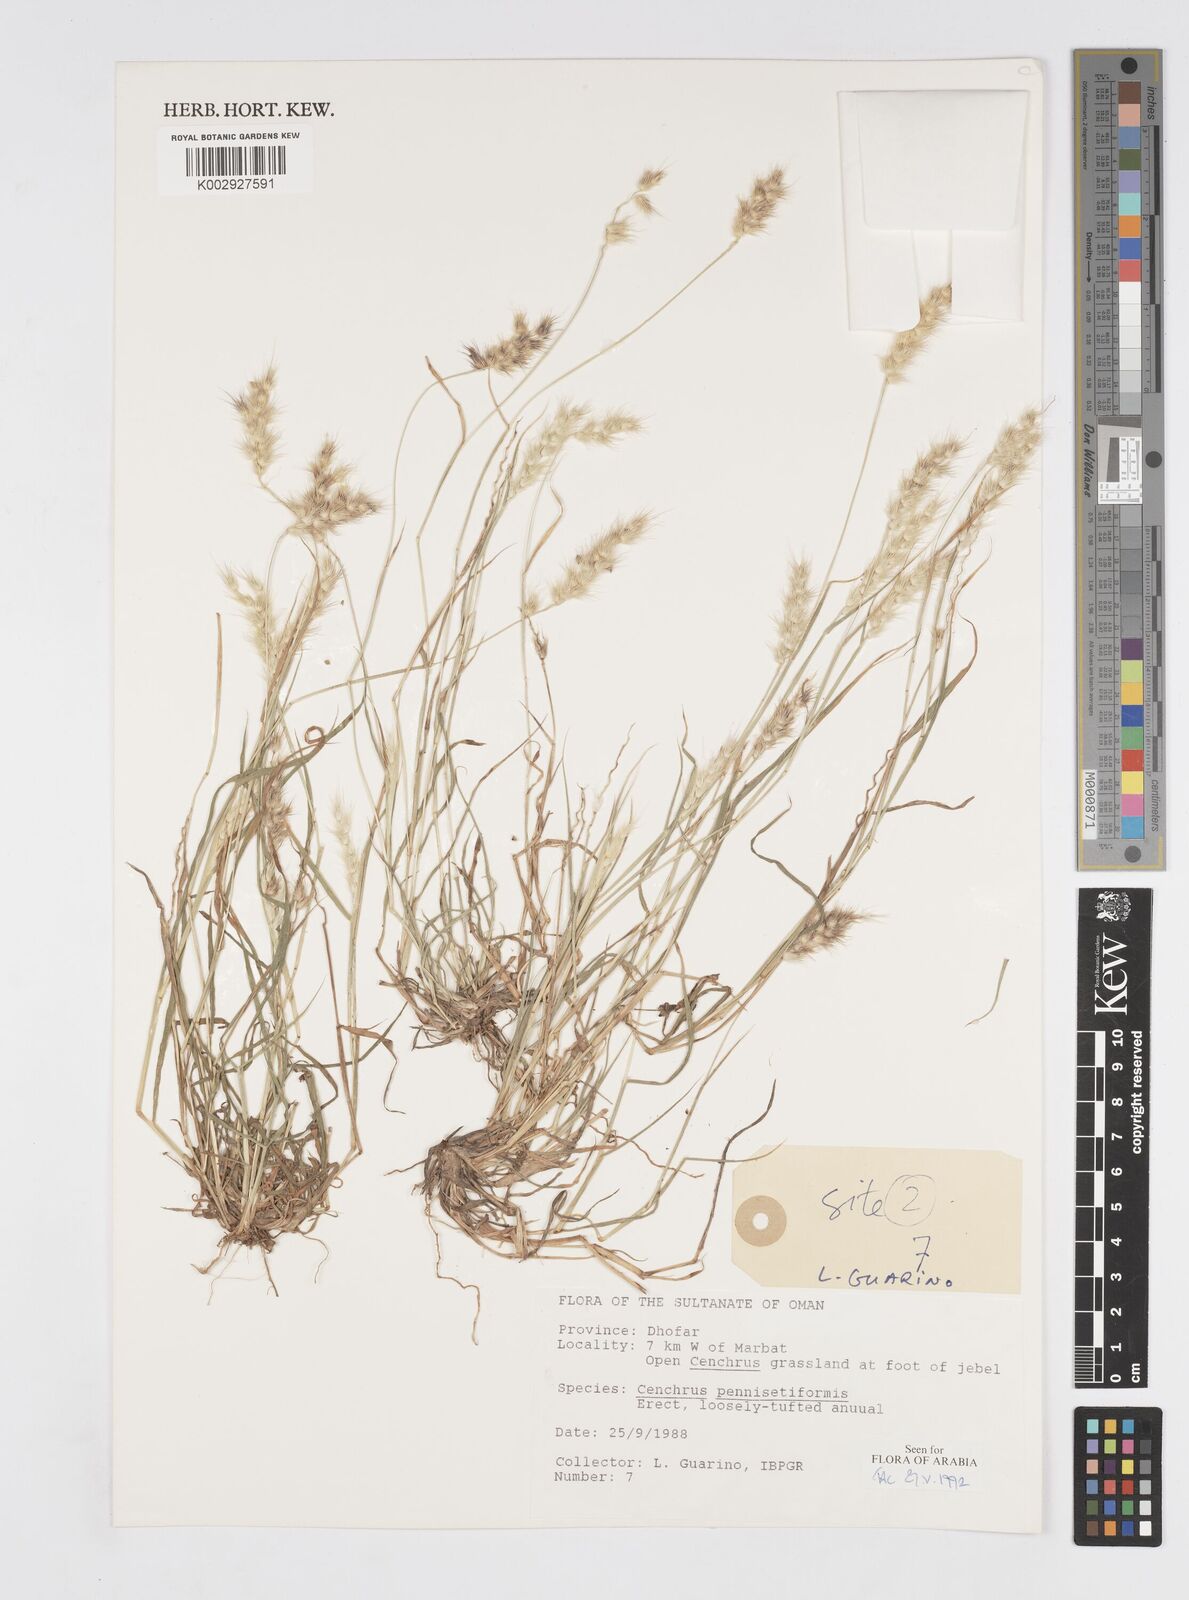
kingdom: Plantae
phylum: Tracheophyta
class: Liliopsida
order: Poales
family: Poaceae
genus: Cenchrus
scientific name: Cenchrus pennisetiformis
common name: Cloncurry
